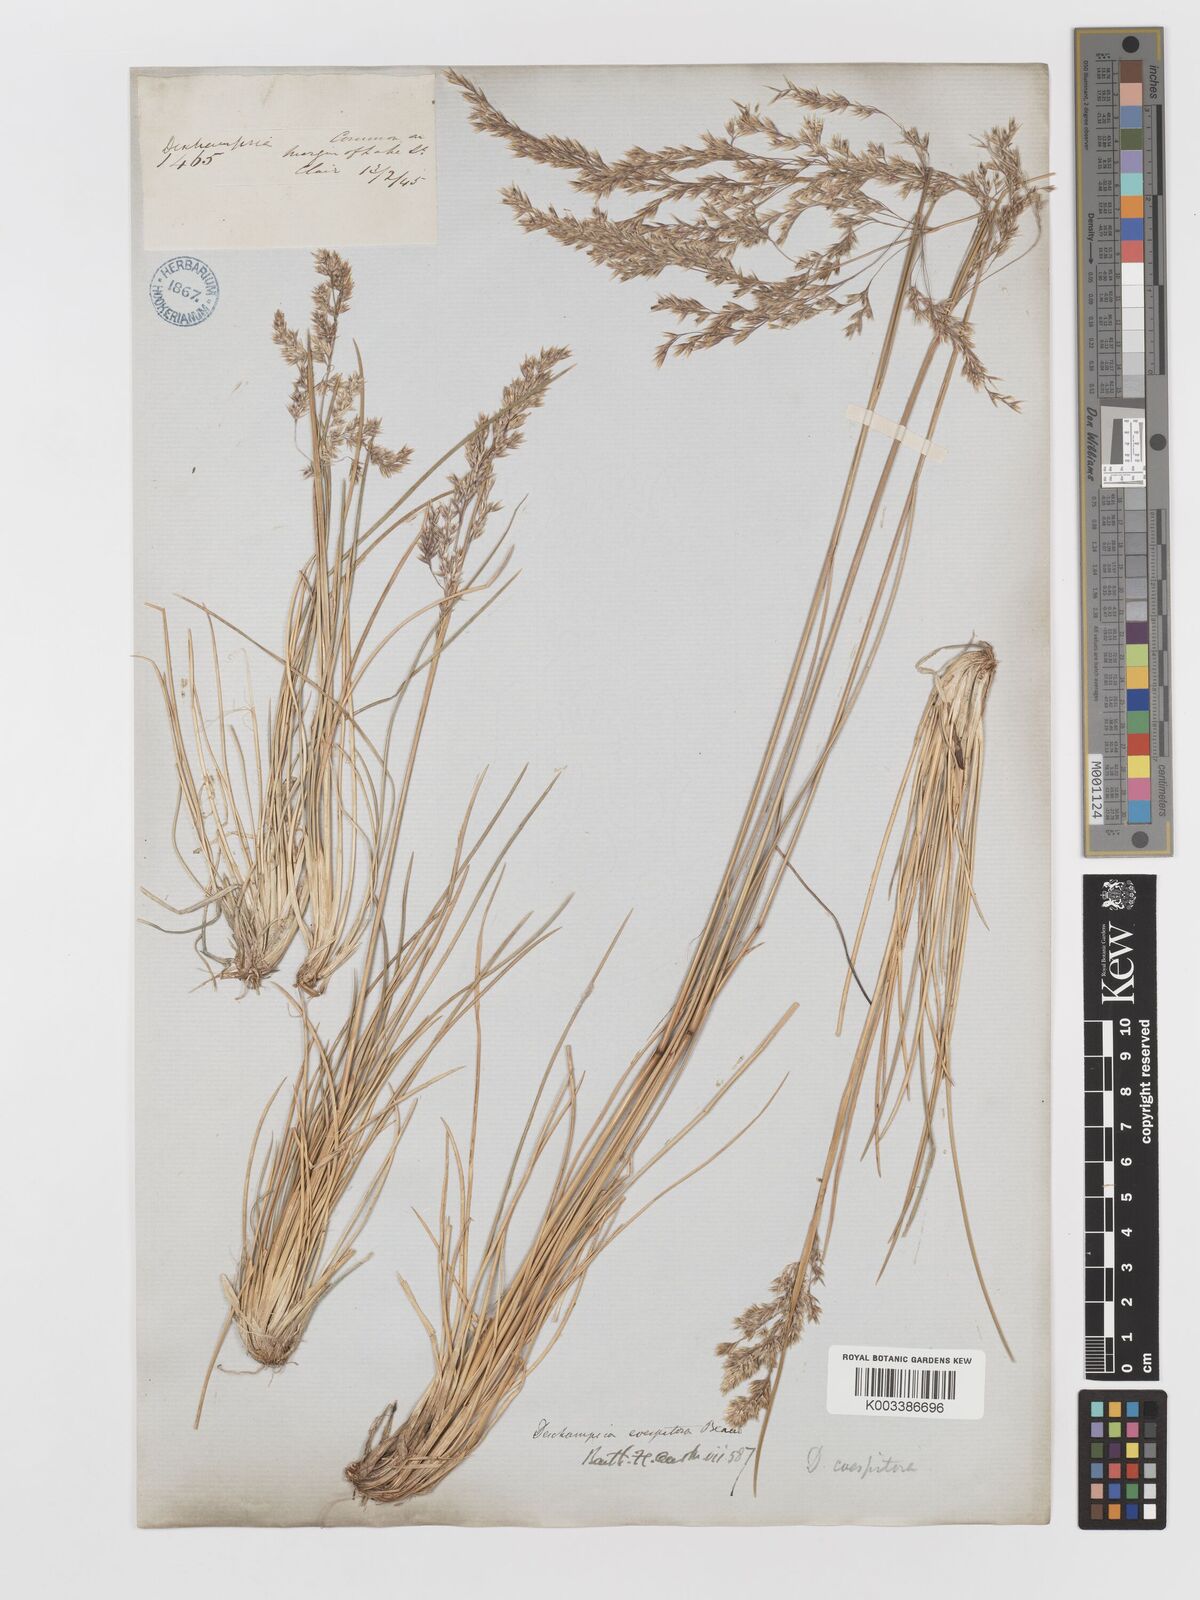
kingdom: Plantae
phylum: Tracheophyta
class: Liliopsida
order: Poales
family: Poaceae
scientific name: Poaceae
